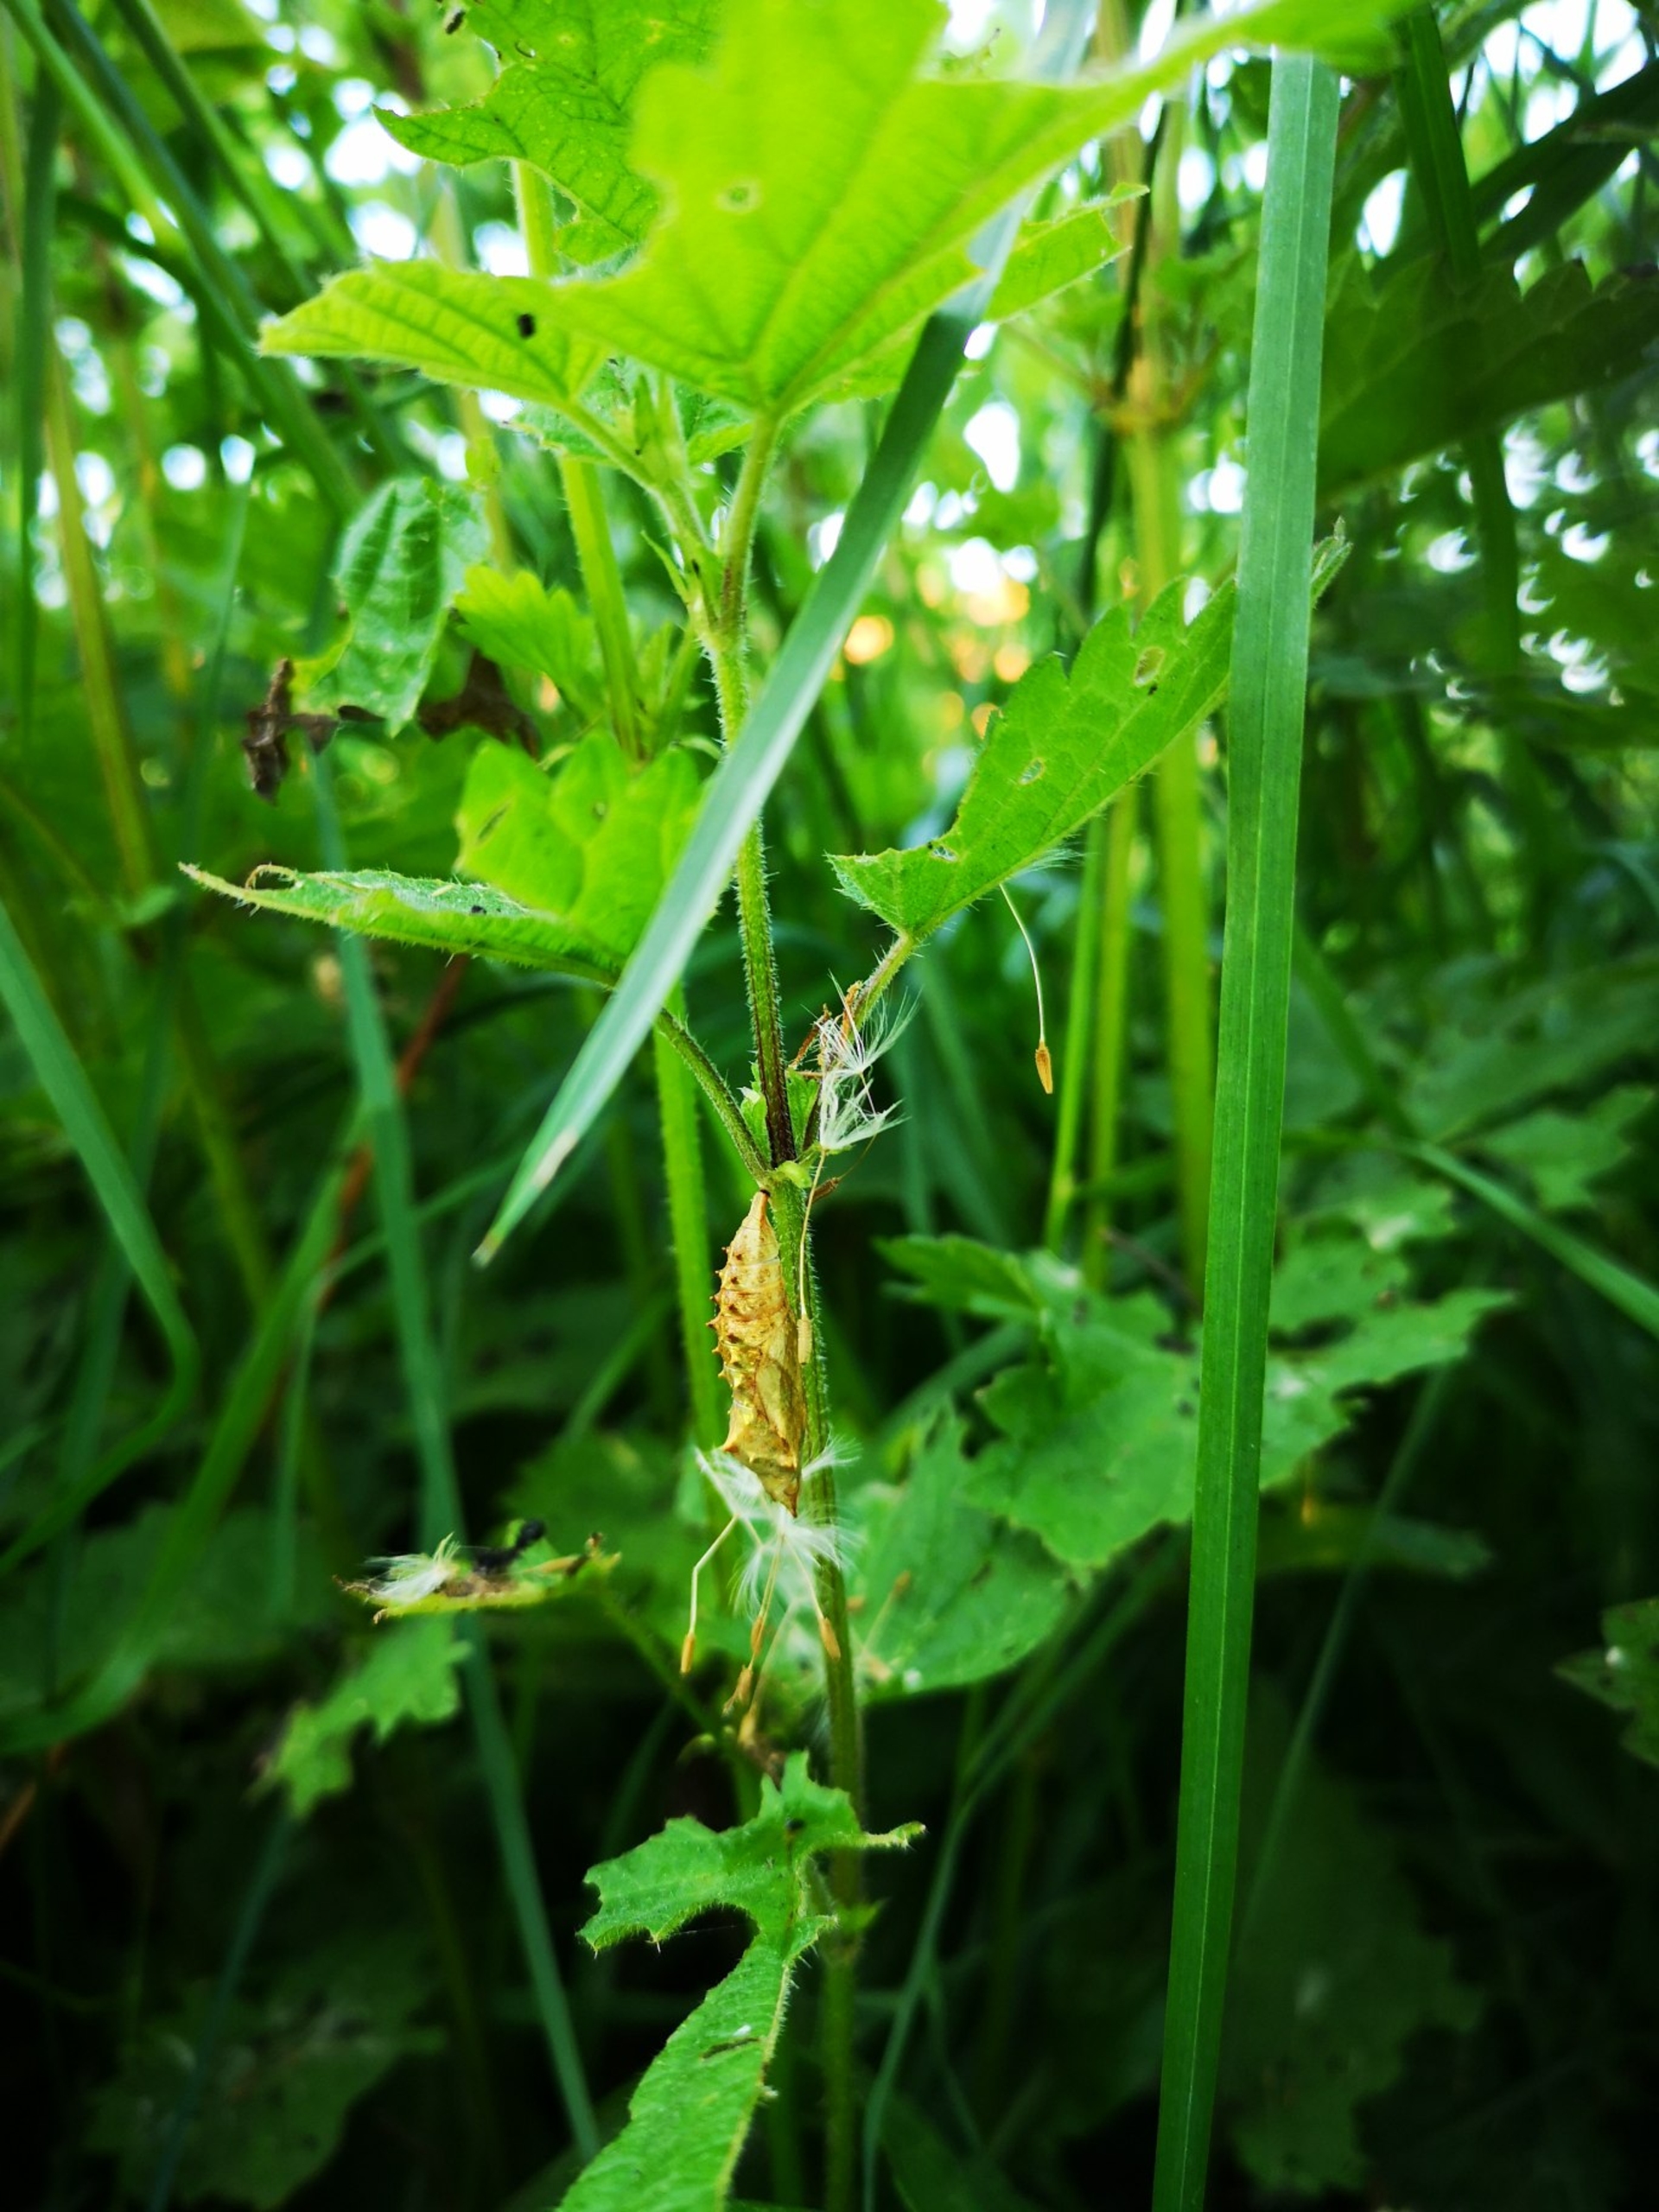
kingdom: Animalia
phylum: Arthropoda
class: Insecta
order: Lepidoptera
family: Nymphalidae
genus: Aglais
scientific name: Aglais urticae
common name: Nældens takvinge
